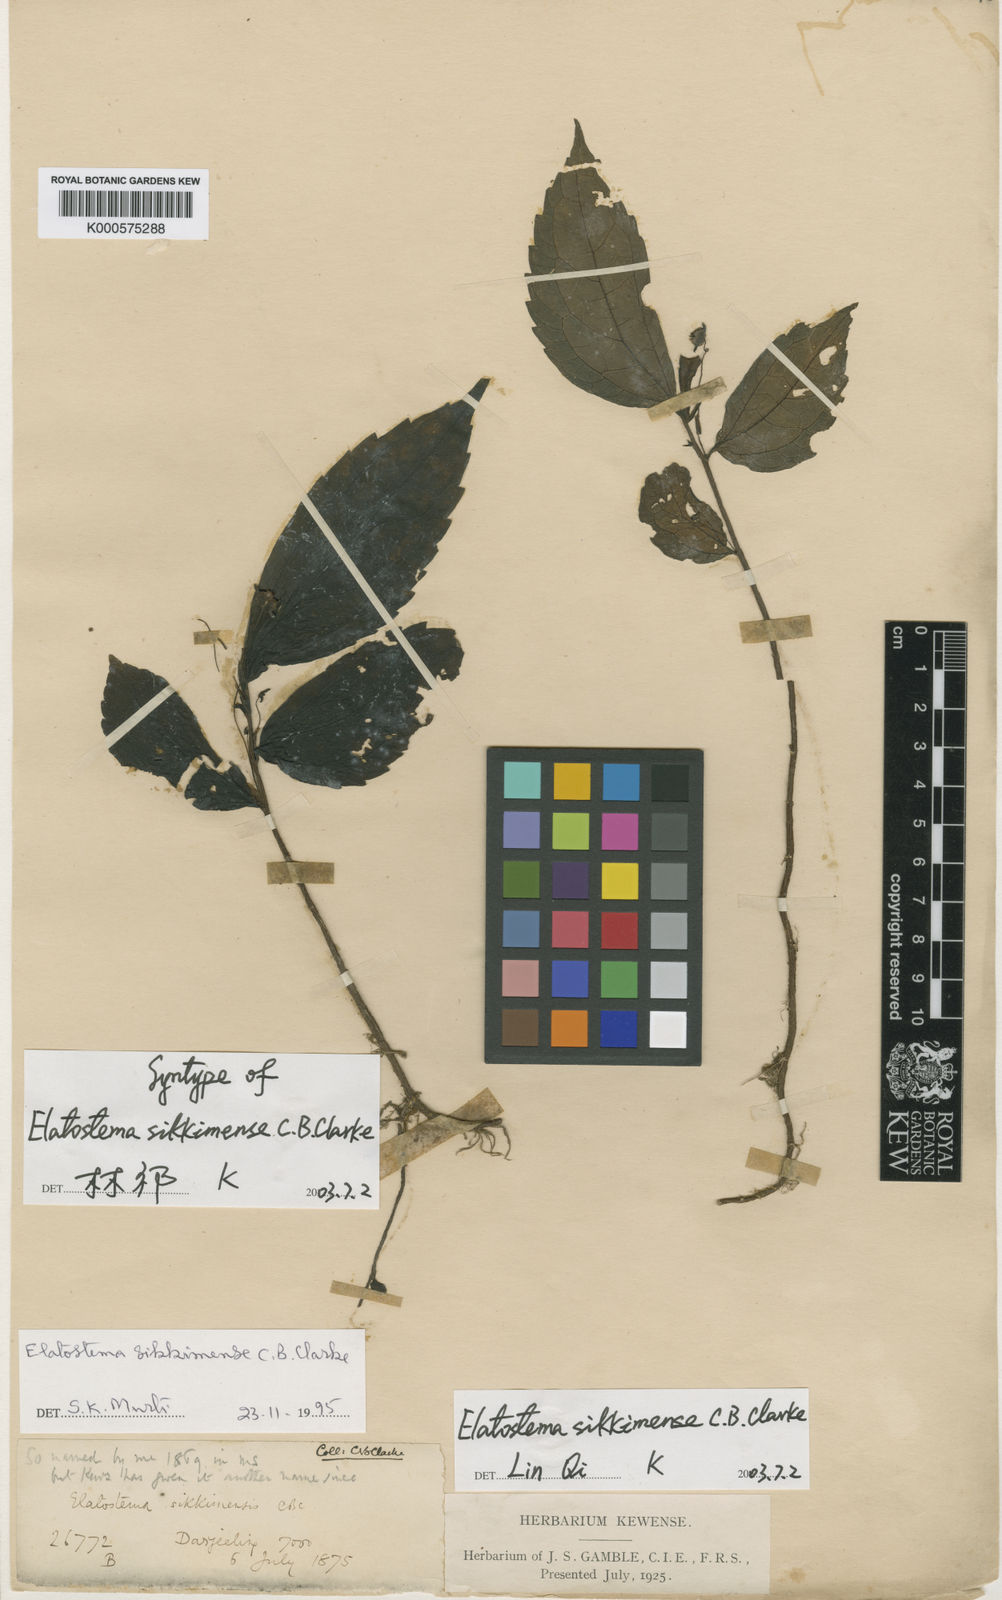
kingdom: Plantae
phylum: Tracheophyta
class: Magnoliopsida
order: Rosales
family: Urticaceae
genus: Elatostema
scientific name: Elatostema sikkimense
